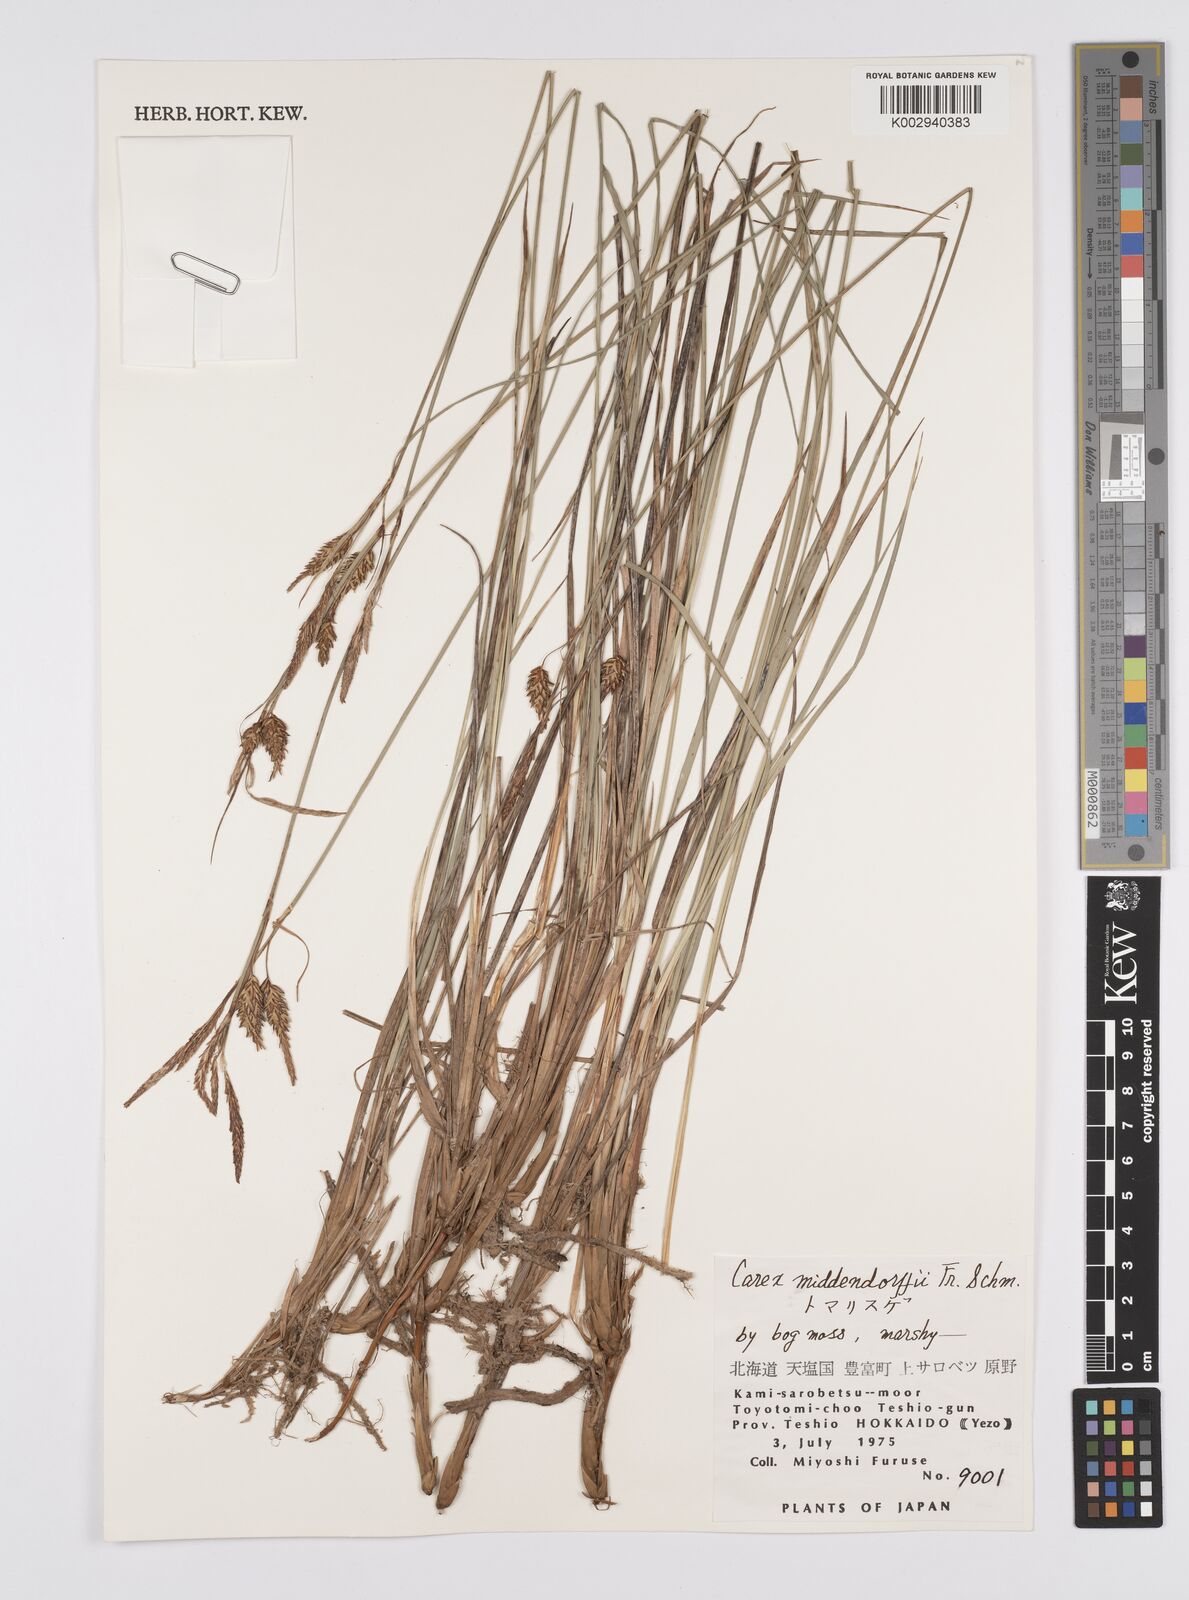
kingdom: Plantae
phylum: Tracheophyta
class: Liliopsida
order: Poales
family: Cyperaceae
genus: Carex
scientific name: Carex middendorffii
